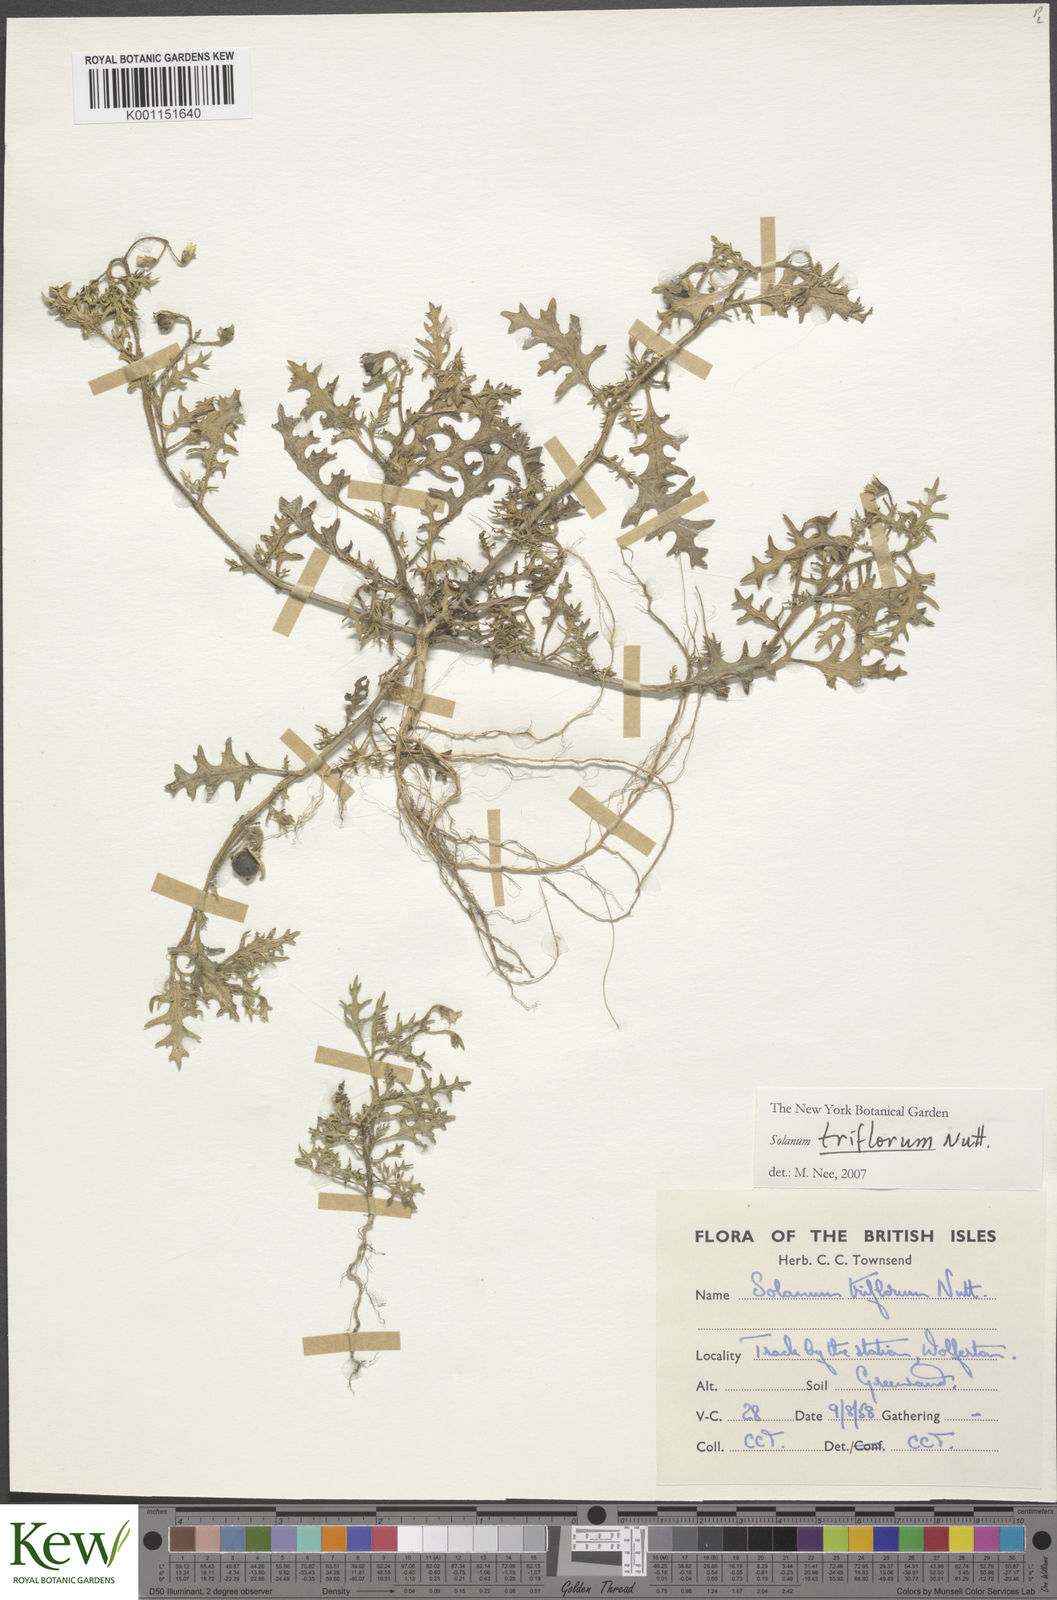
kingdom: Plantae
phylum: Tracheophyta
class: Magnoliopsida
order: Solanales
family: Solanaceae
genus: Solanum
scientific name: Solanum triflorum
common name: Small nightshade
